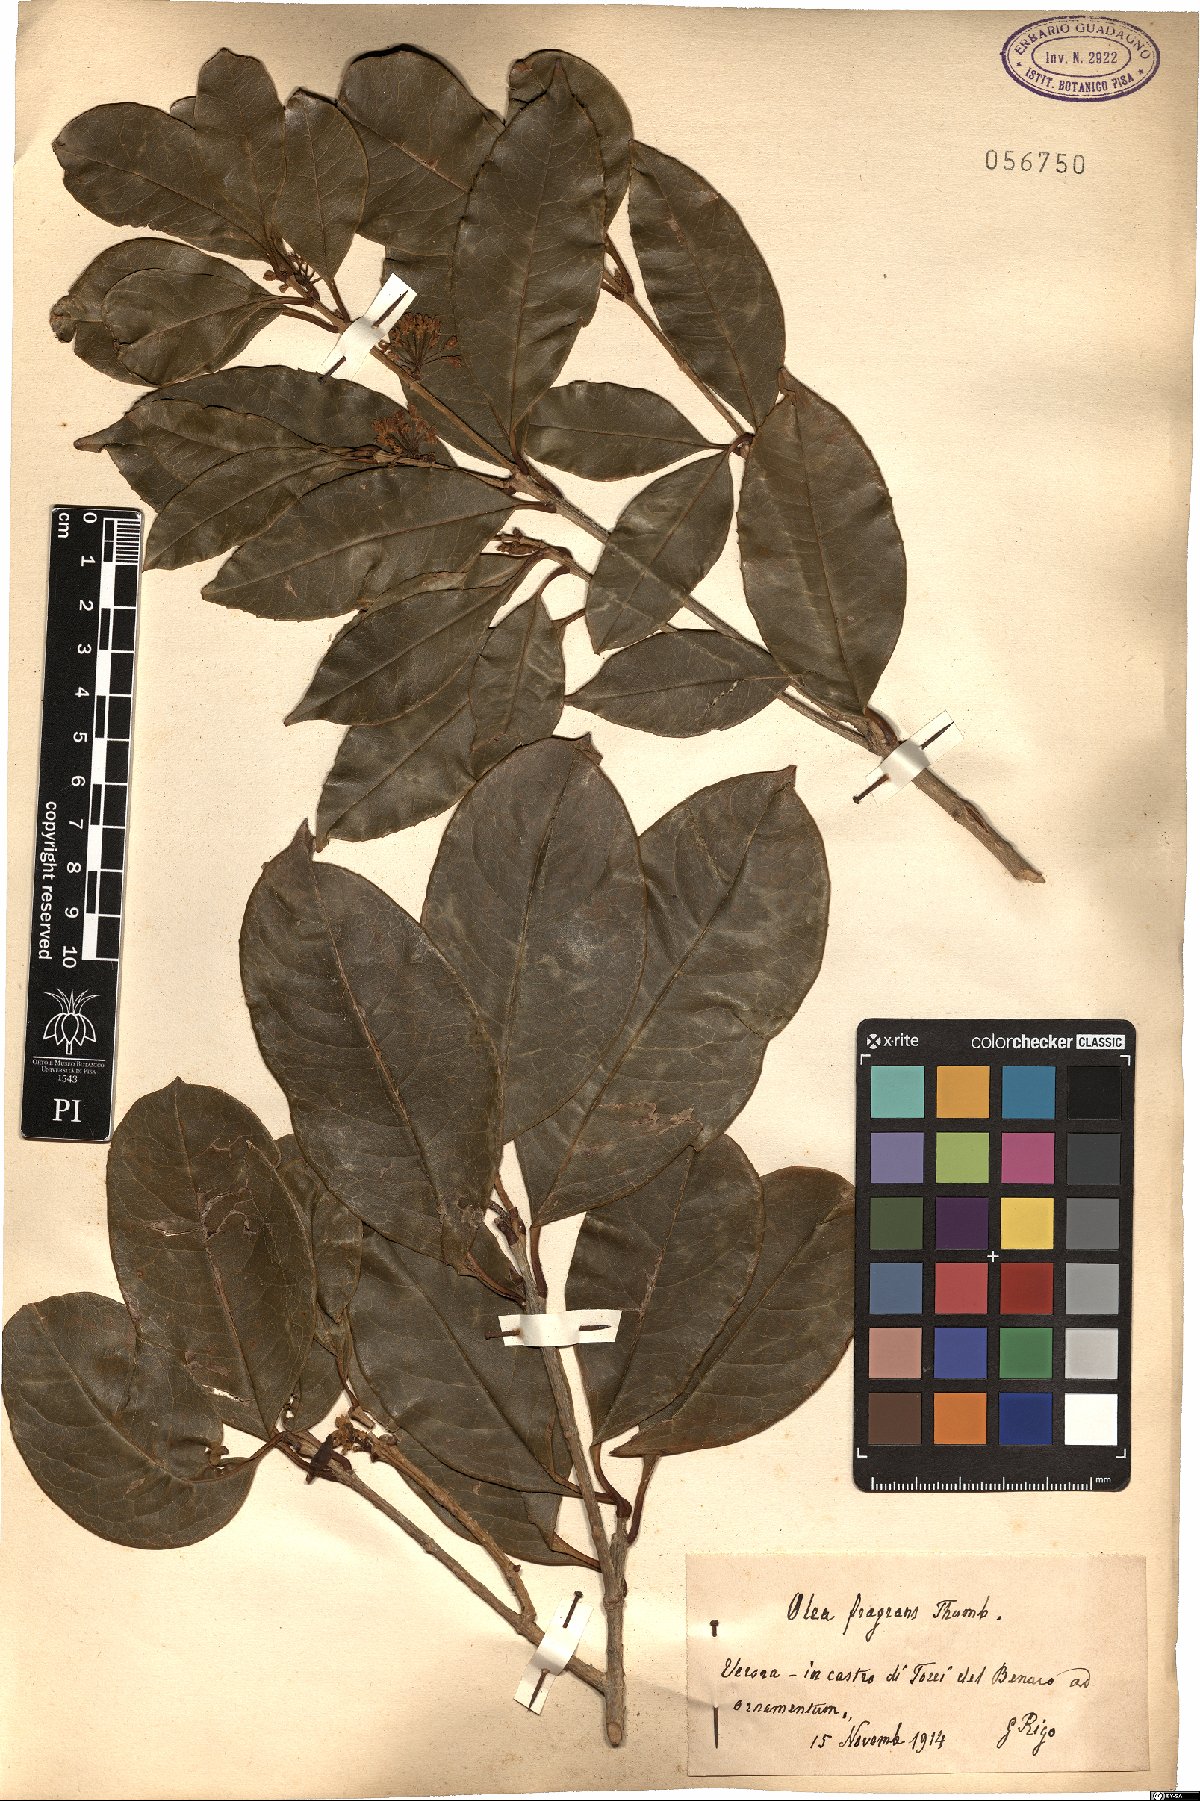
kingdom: Plantae
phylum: Tracheophyta
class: Magnoliopsida
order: Lamiales
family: Oleaceae
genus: Osmanthus
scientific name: Osmanthus fragrans
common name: Sweet osmanthus
